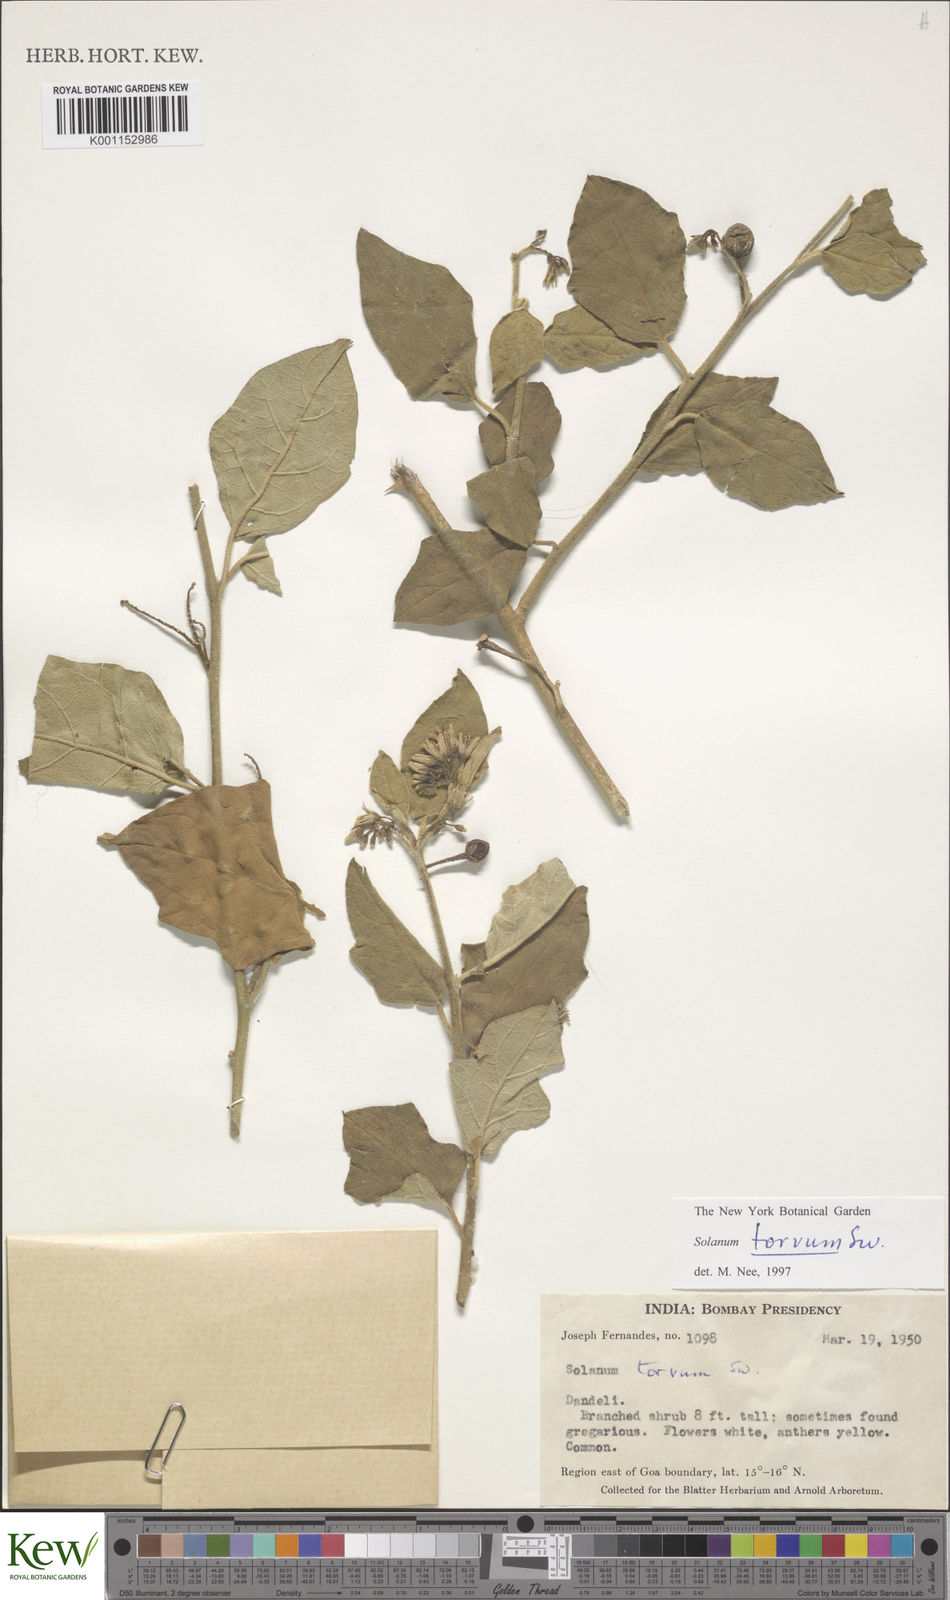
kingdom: Plantae
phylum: Tracheophyta
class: Magnoliopsida
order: Solanales
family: Solanaceae
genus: Solanum
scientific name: Solanum torvum
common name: Turkey berry
